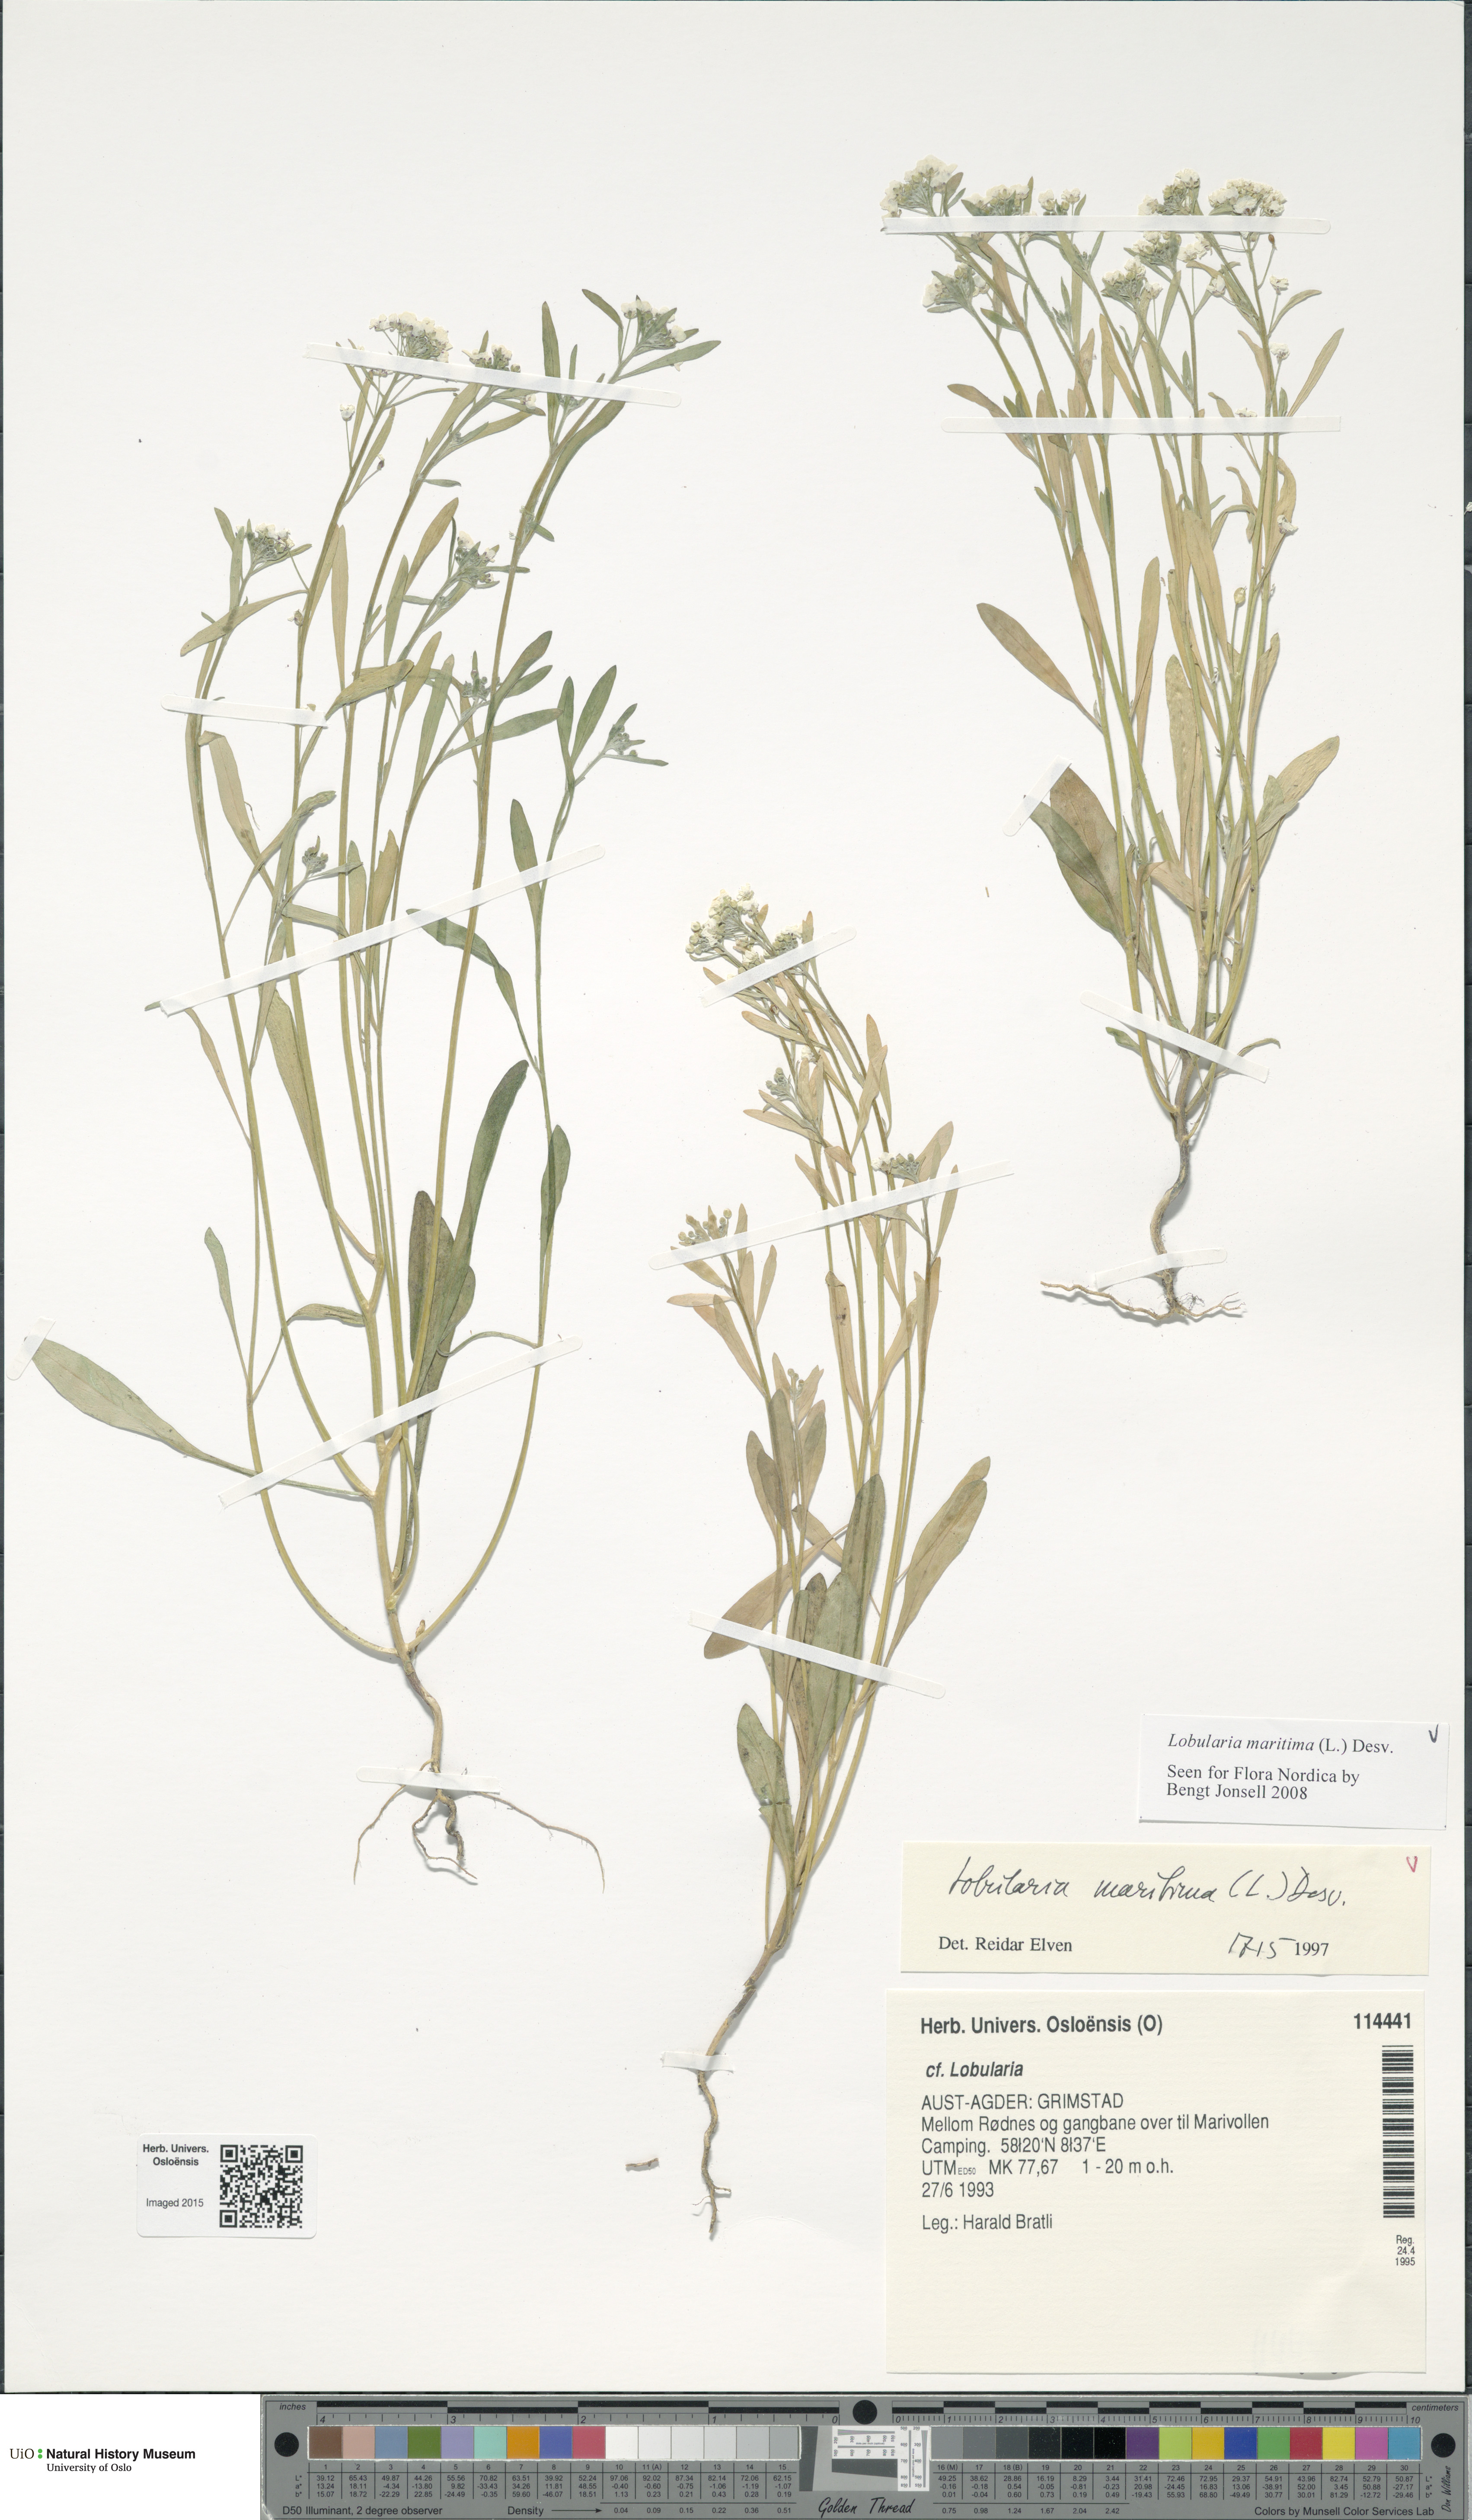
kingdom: Plantae
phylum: Tracheophyta
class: Magnoliopsida
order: Brassicales
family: Brassicaceae
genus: Lobularia
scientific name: Lobularia maritima
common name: Sweet alison
